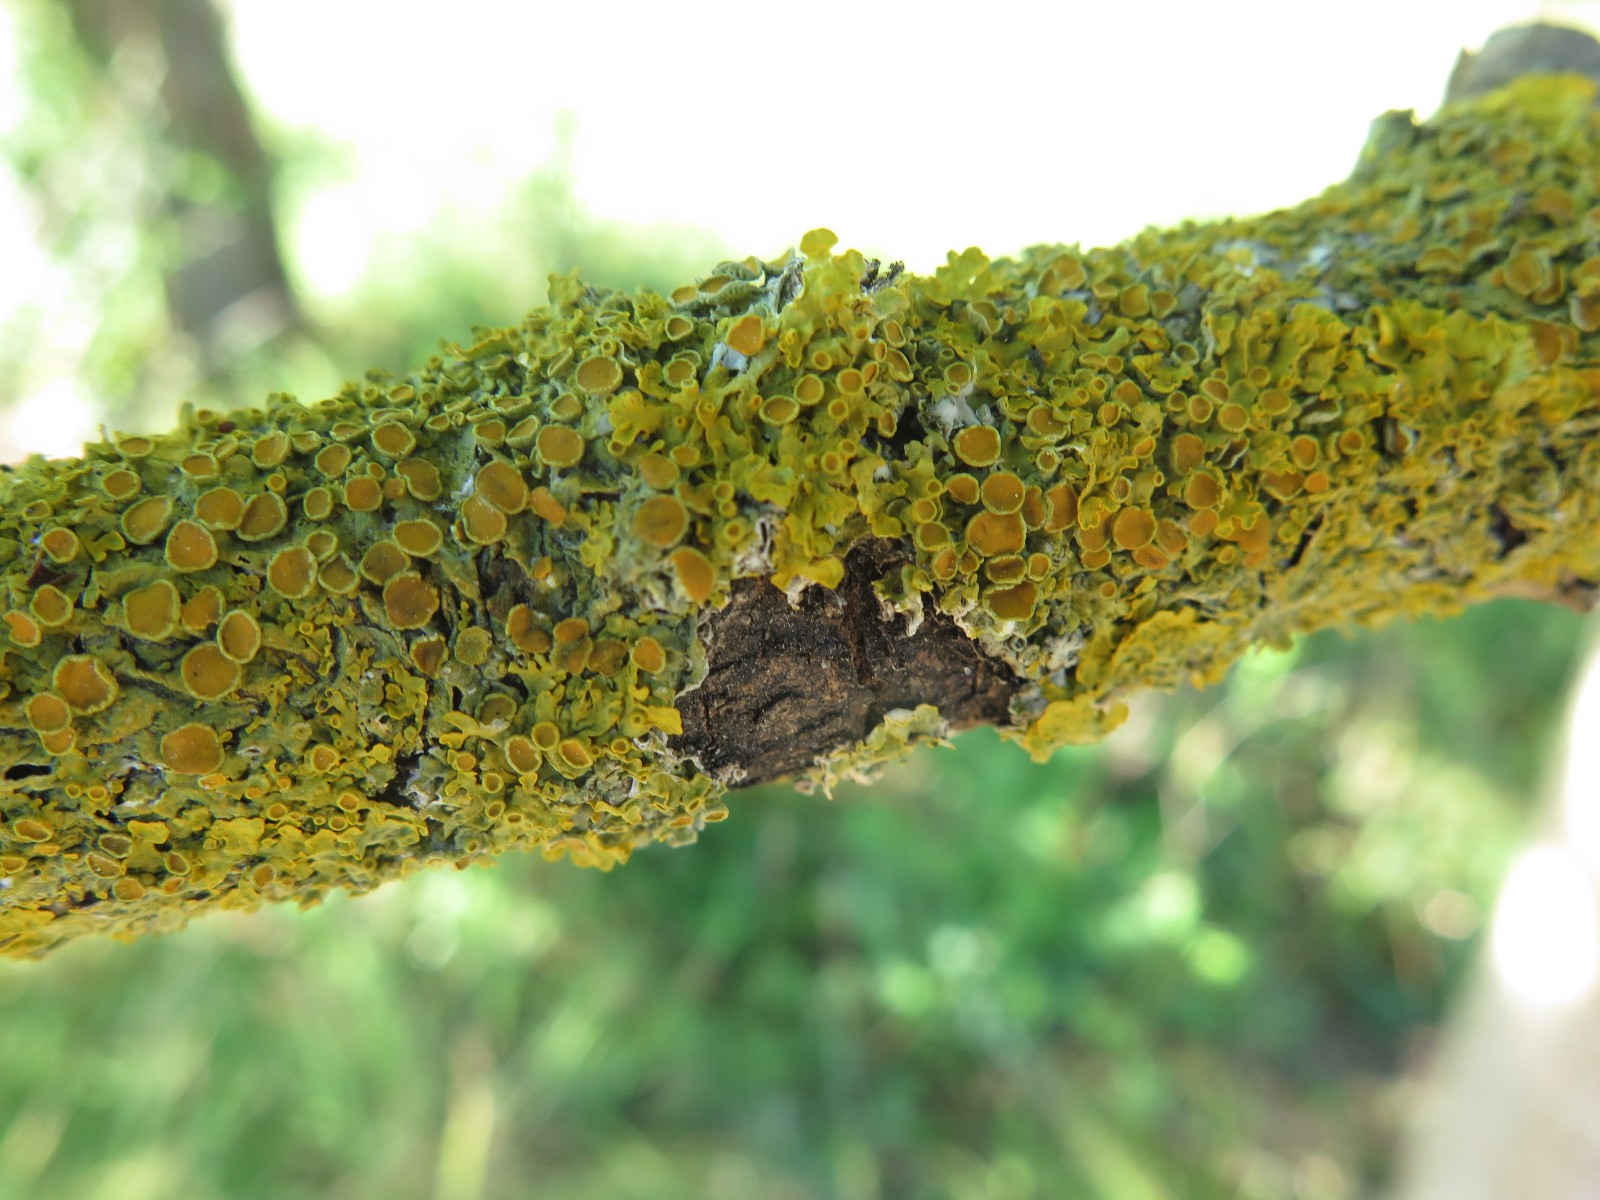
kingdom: Fungi
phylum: Ascomycota
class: Lecanoromycetes
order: Teloschistales
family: Teloschistaceae
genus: Xanthoria
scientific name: Xanthoria parietina
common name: almindelig væggelav
